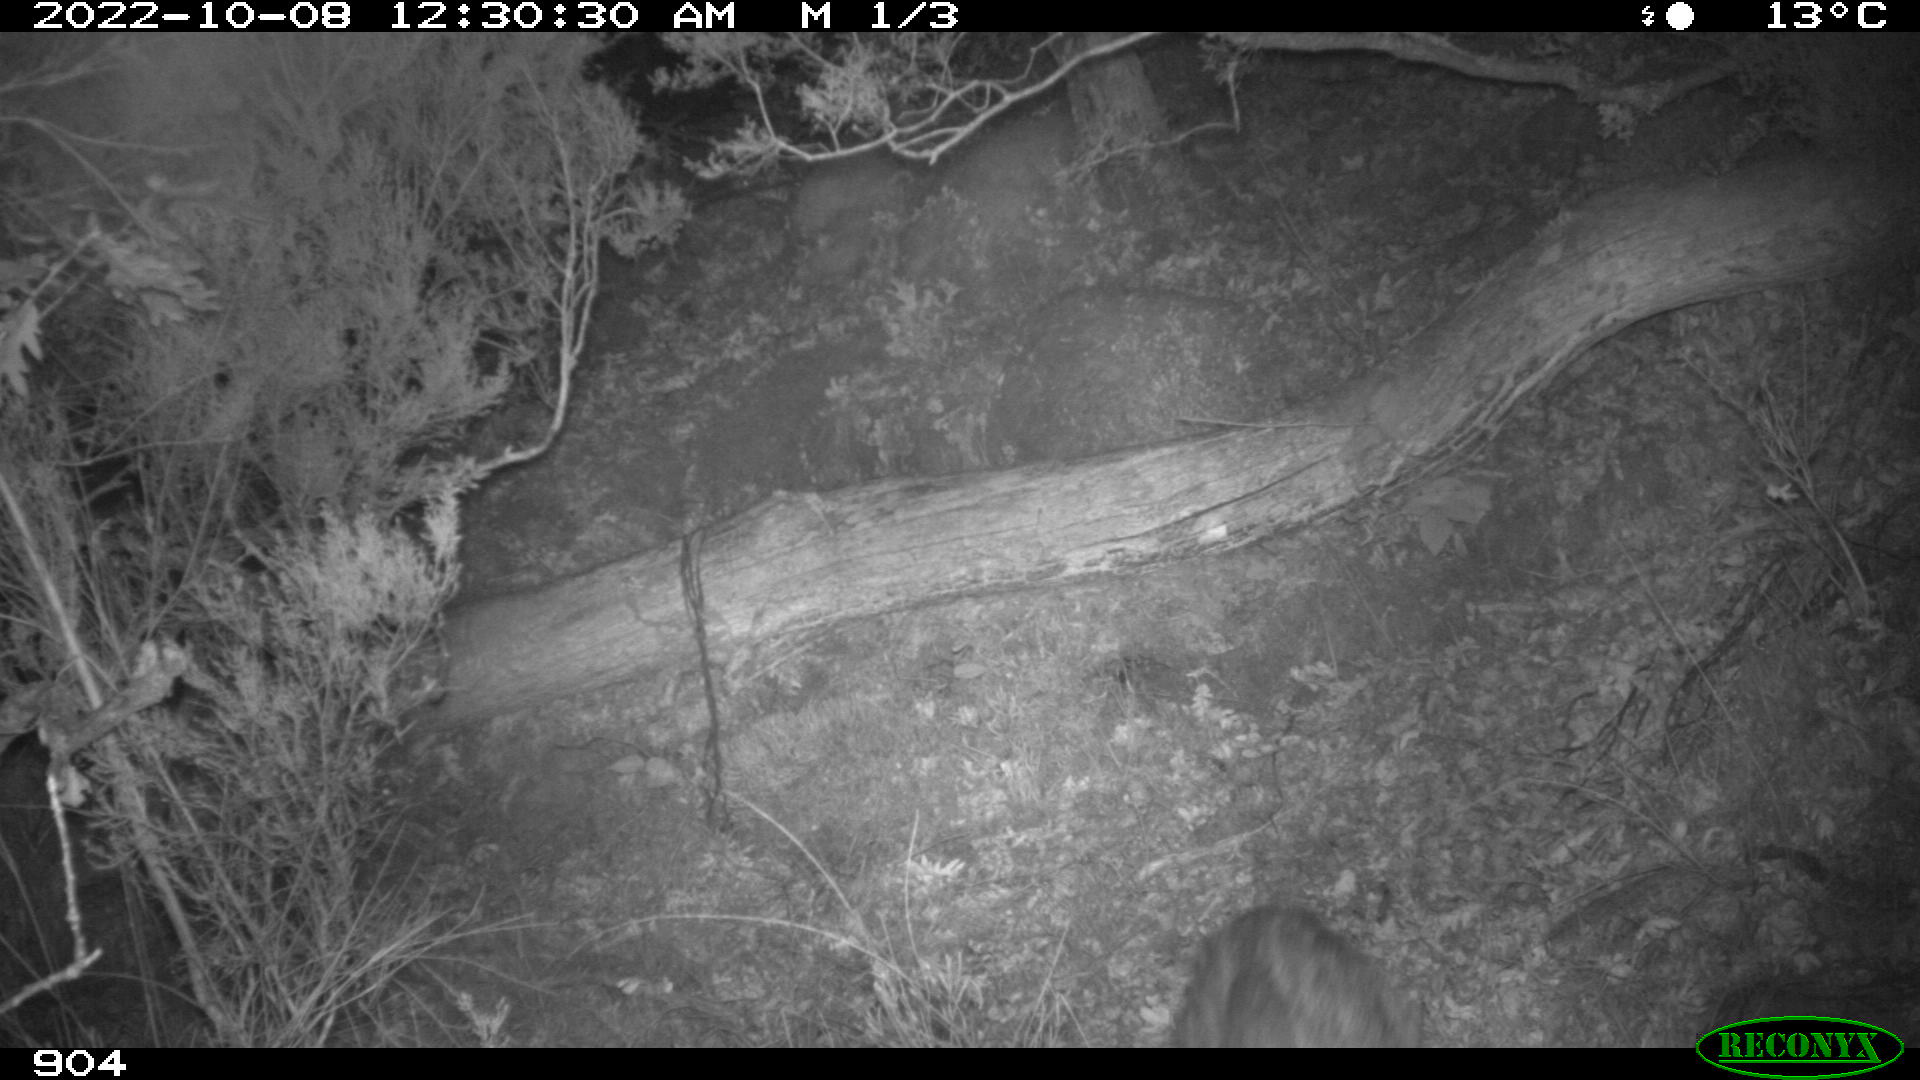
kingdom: Animalia
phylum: Chordata
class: Mammalia
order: Artiodactyla
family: Suidae
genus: Sus
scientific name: Sus scrofa
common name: Wild boar
